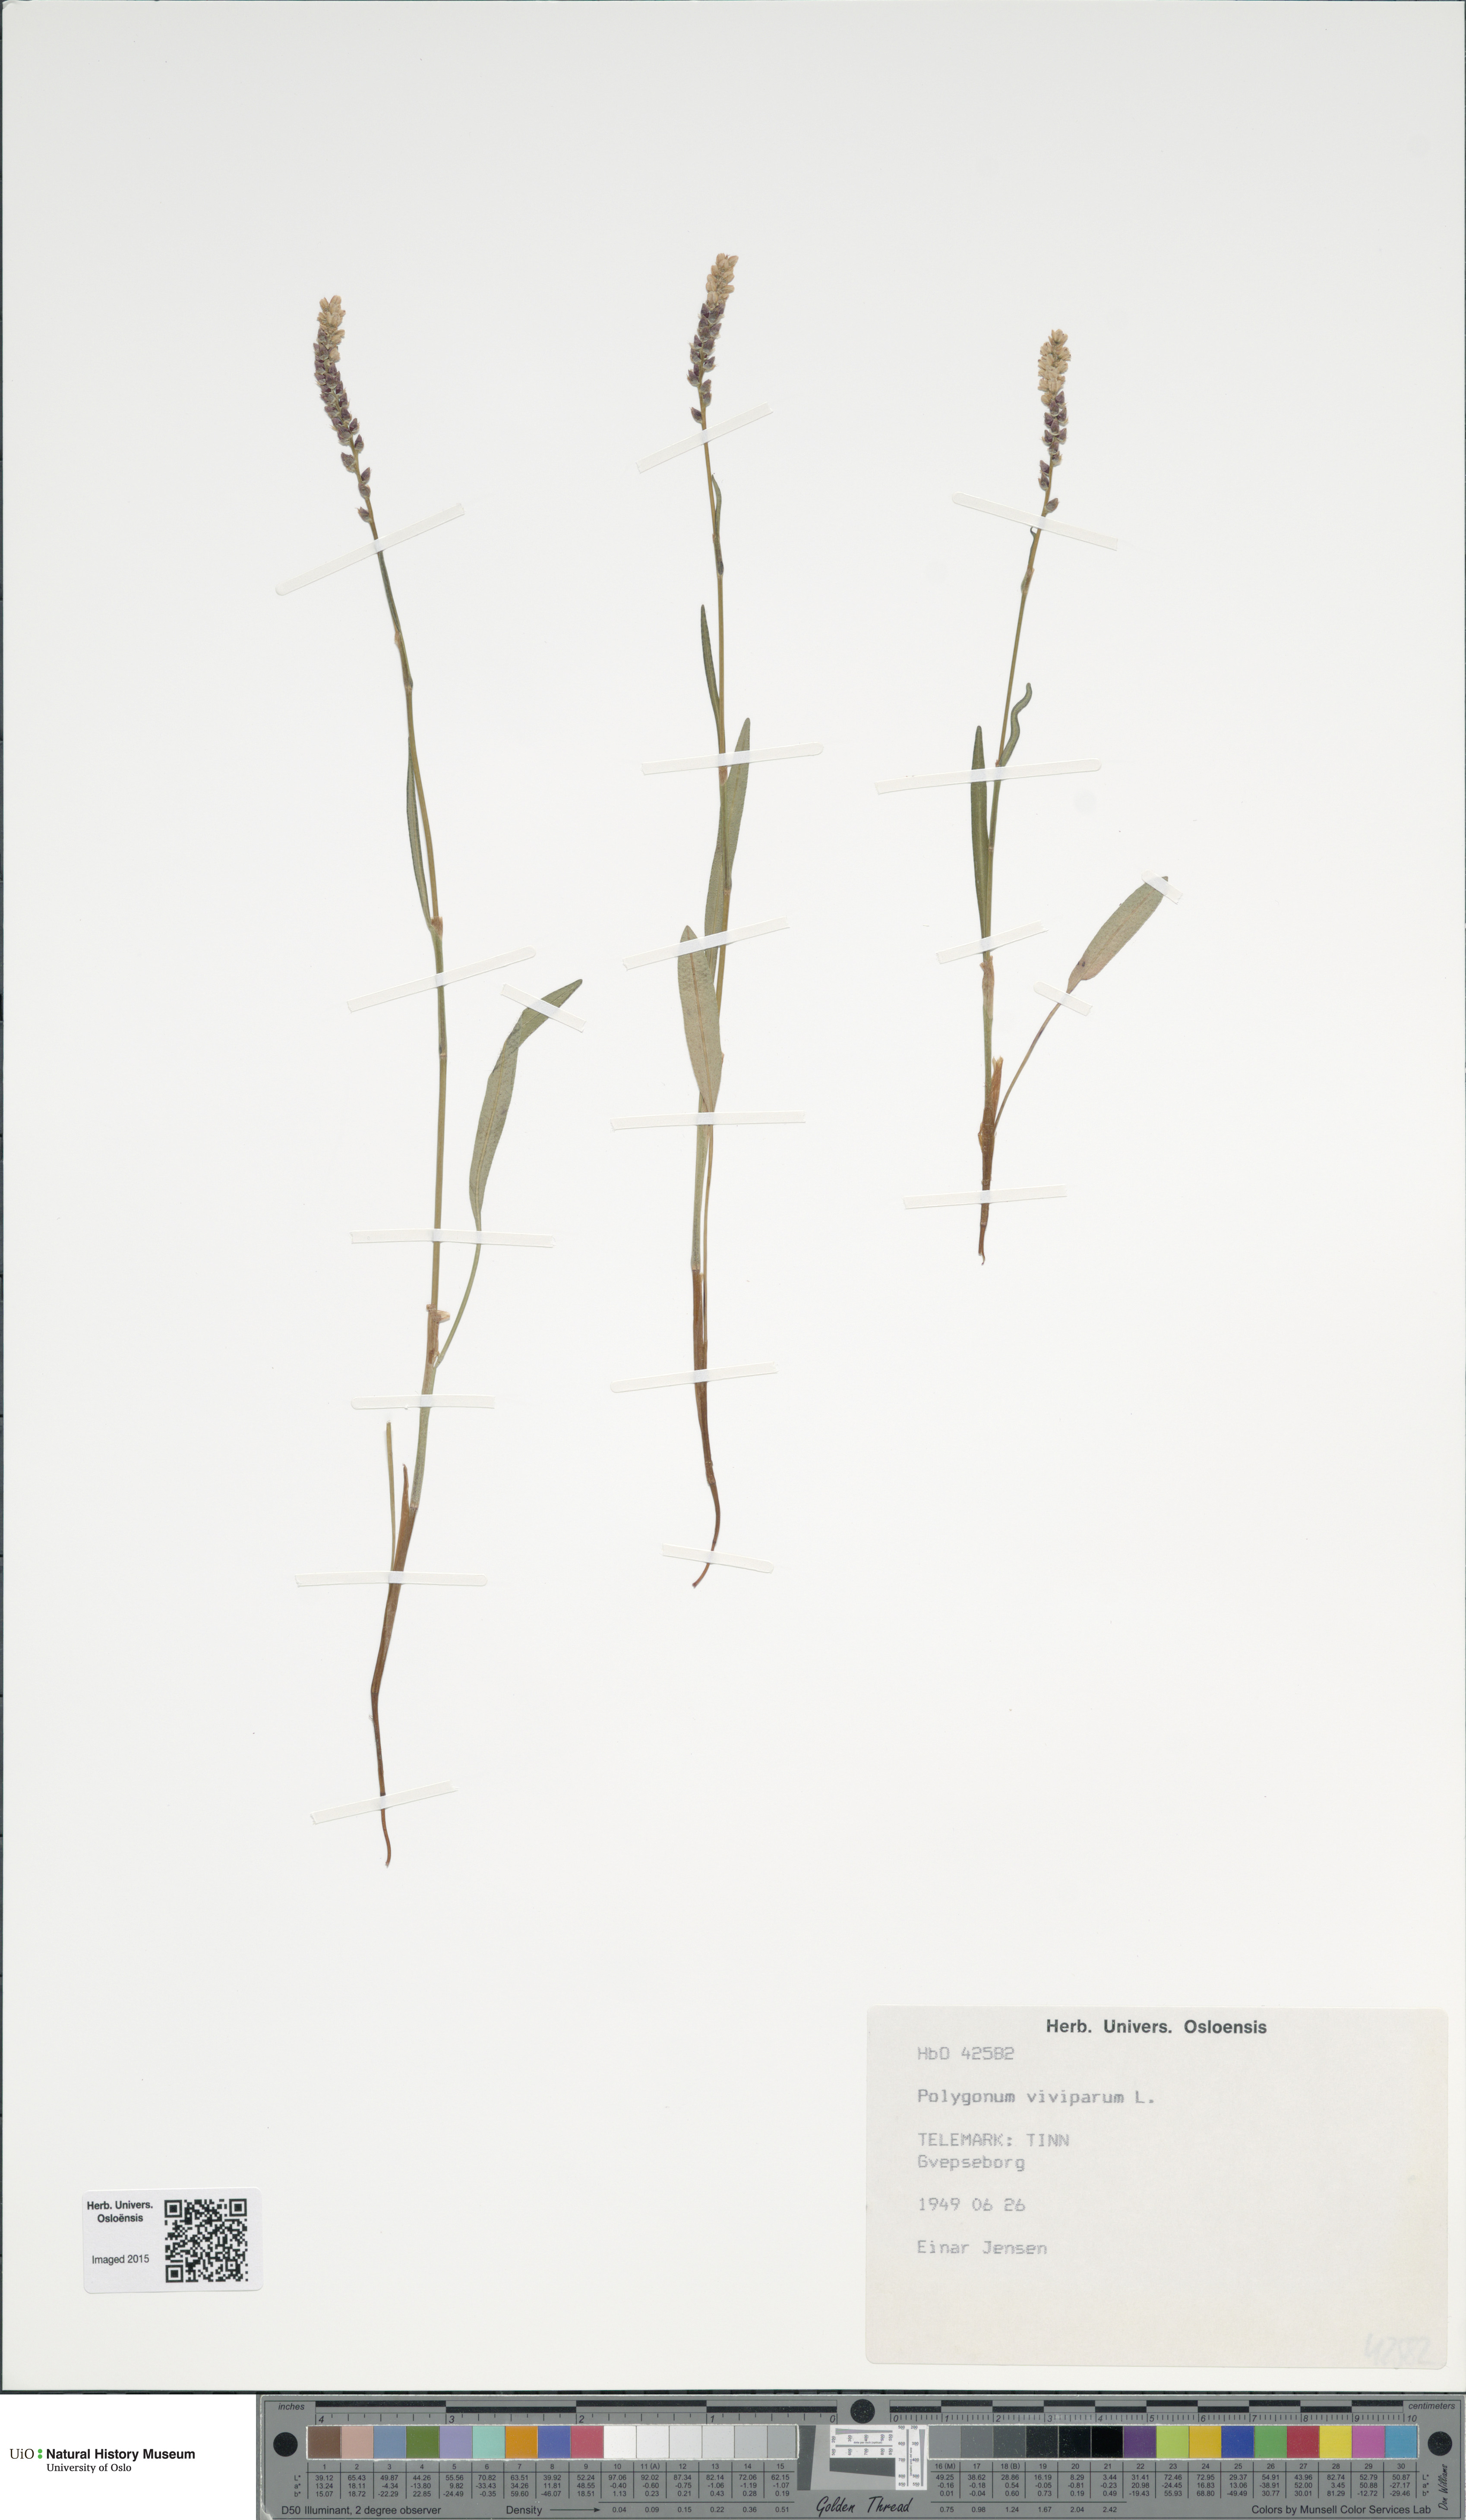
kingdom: Plantae
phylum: Tracheophyta
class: Magnoliopsida
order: Caryophyllales
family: Polygonaceae
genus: Bistorta
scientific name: Bistorta vivipara
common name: Alpine bistort
